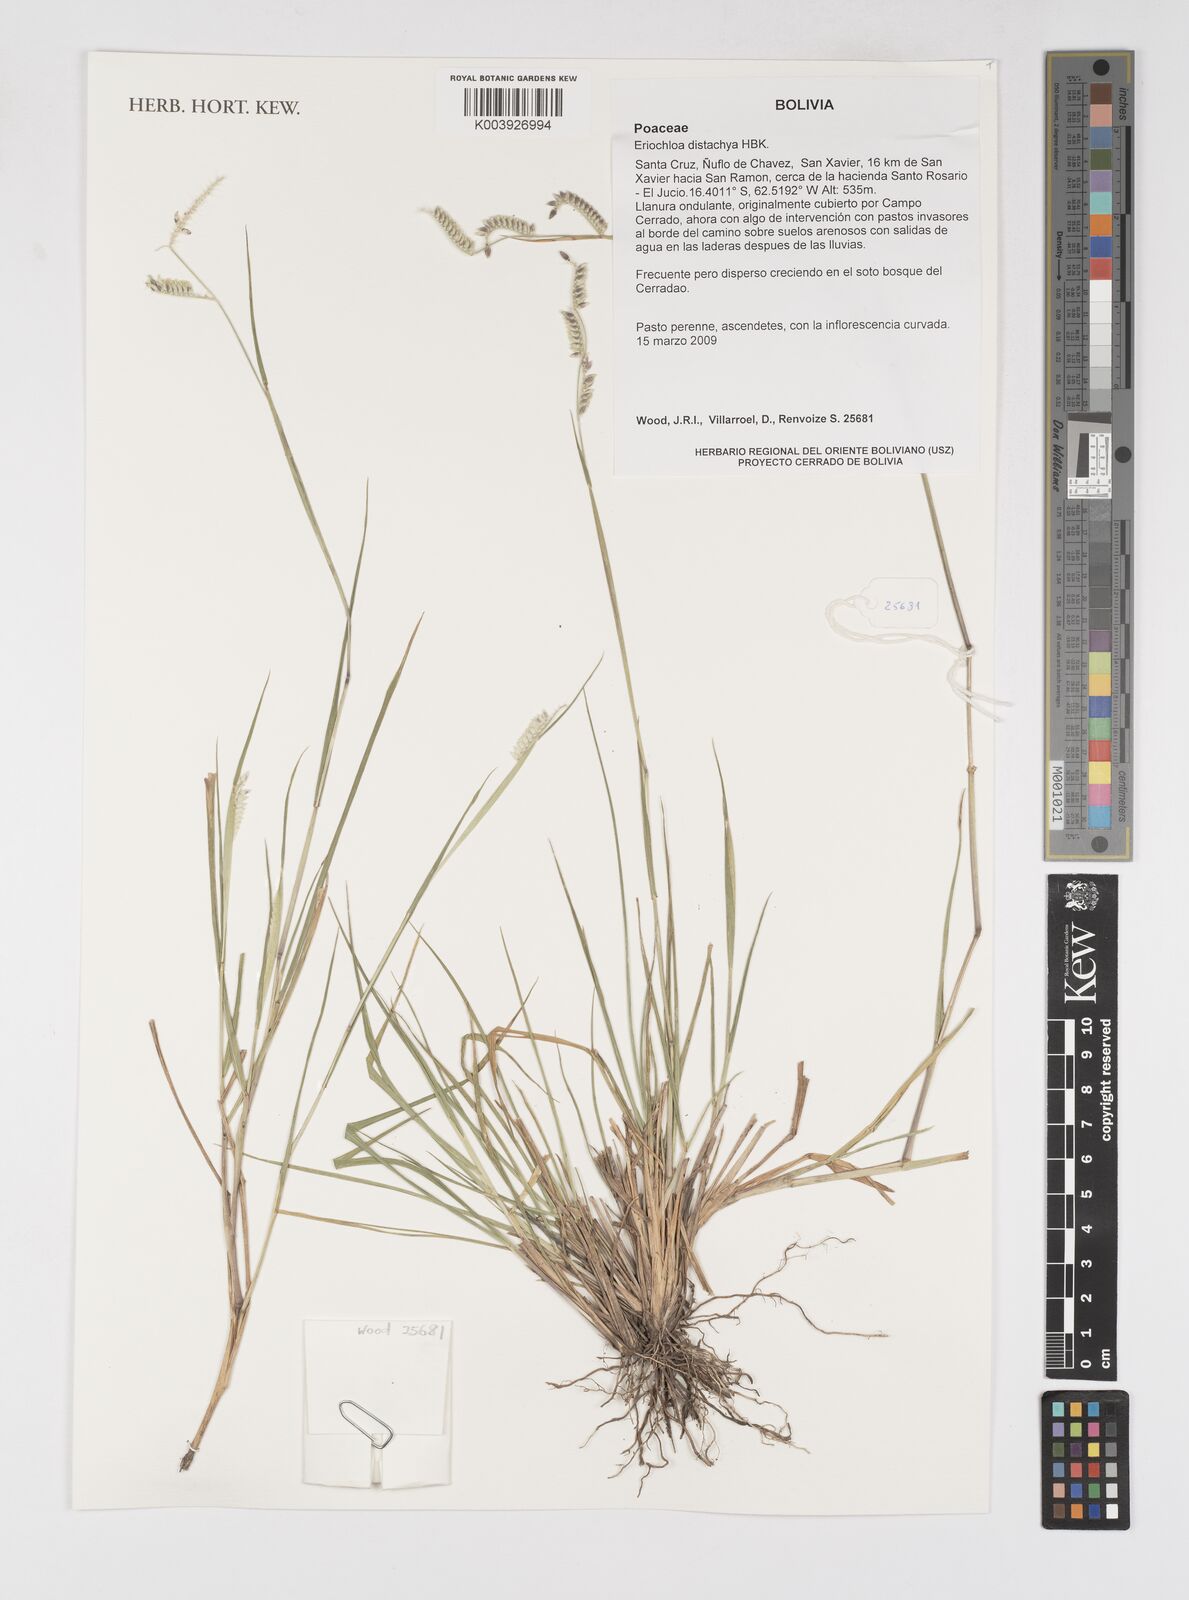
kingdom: Plantae
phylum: Tracheophyta
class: Liliopsida
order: Poales
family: Poaceae
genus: Eriochloa
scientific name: Eriochloa distachya
